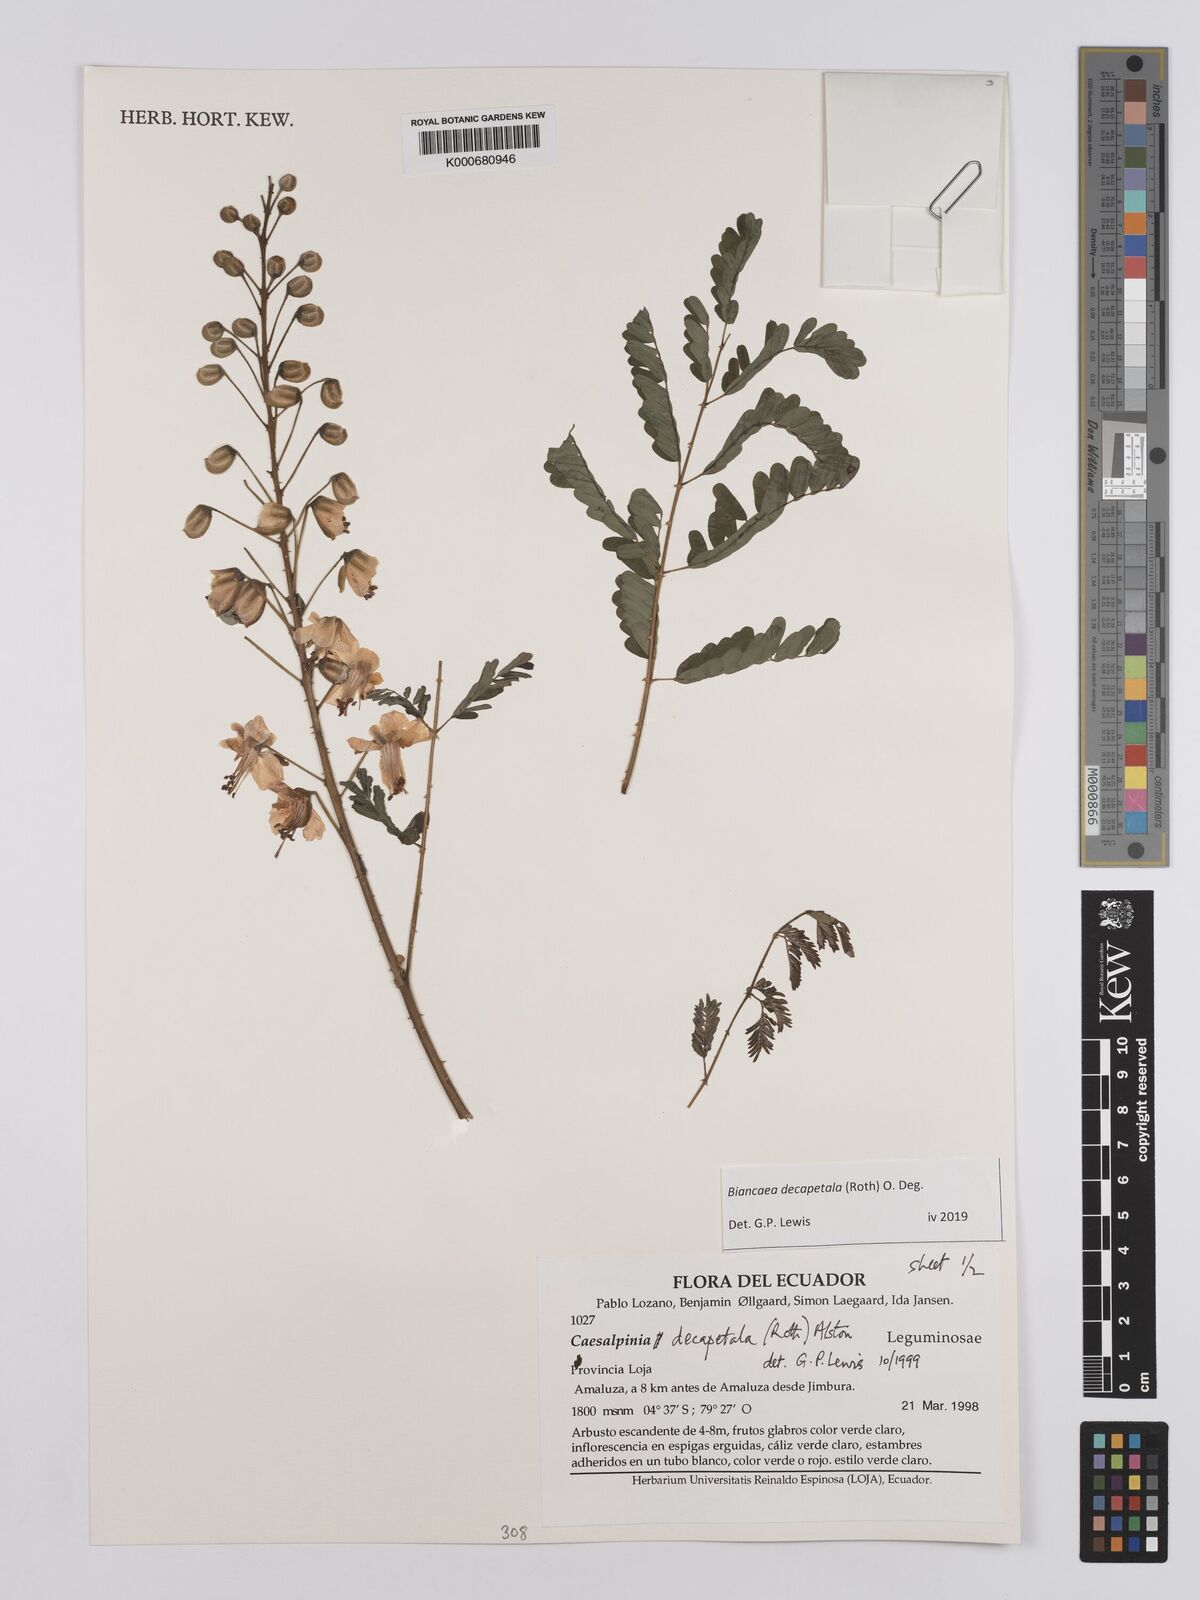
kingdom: Plantae
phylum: Tracheophyta
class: Magnoliopsida
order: Fabales
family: Fabaceae
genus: Biancaea
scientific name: Biancaea decapetala
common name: Cat's claw
